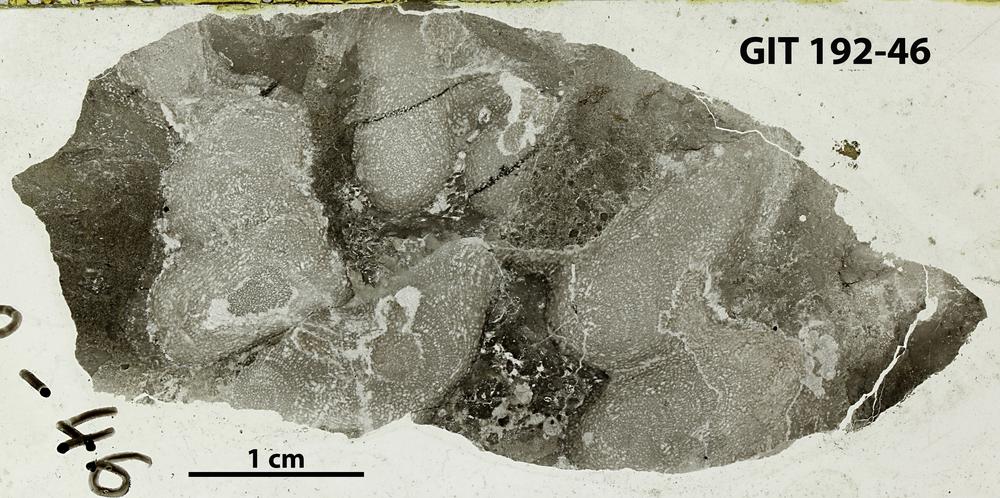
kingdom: Animalia
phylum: Porifera
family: Pseudolabechiidae
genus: Vikingia
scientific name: Vikingia
